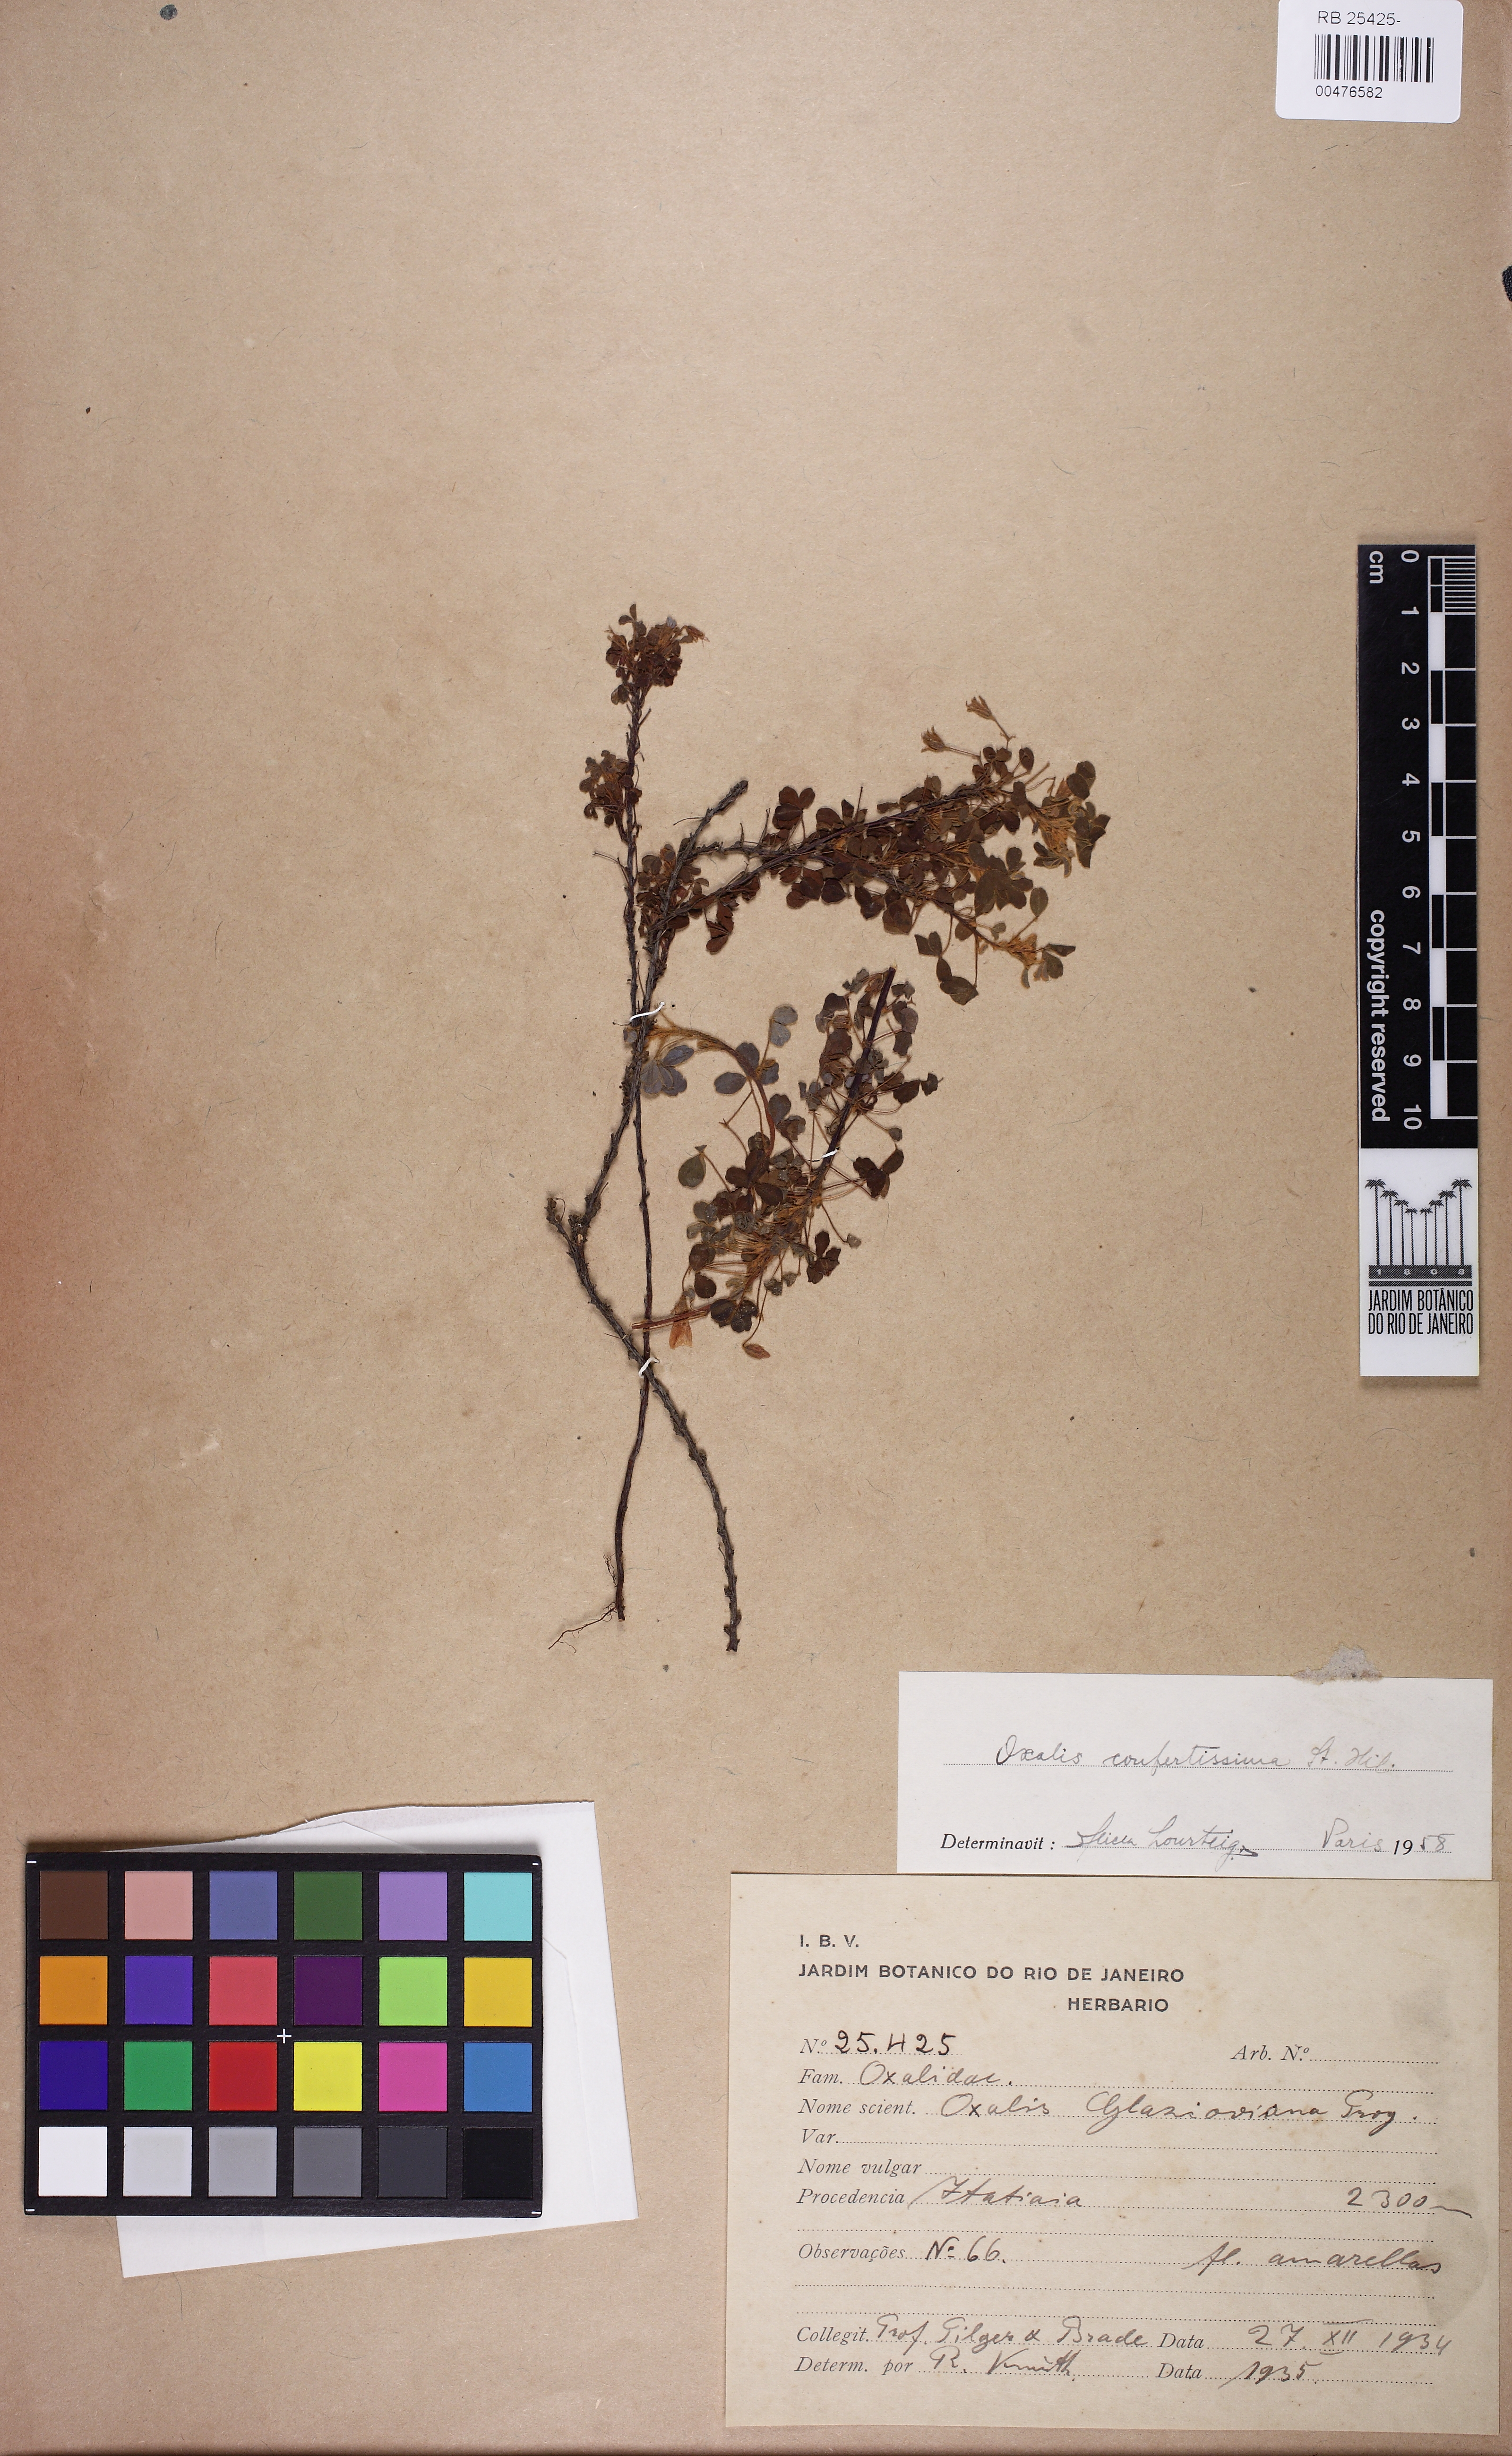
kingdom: Plantae
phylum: Tracheophyta
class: Magnoliopsida
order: Oxalidales
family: Oxalidaceae
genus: Oxalis
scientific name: Oxalis confertissima
